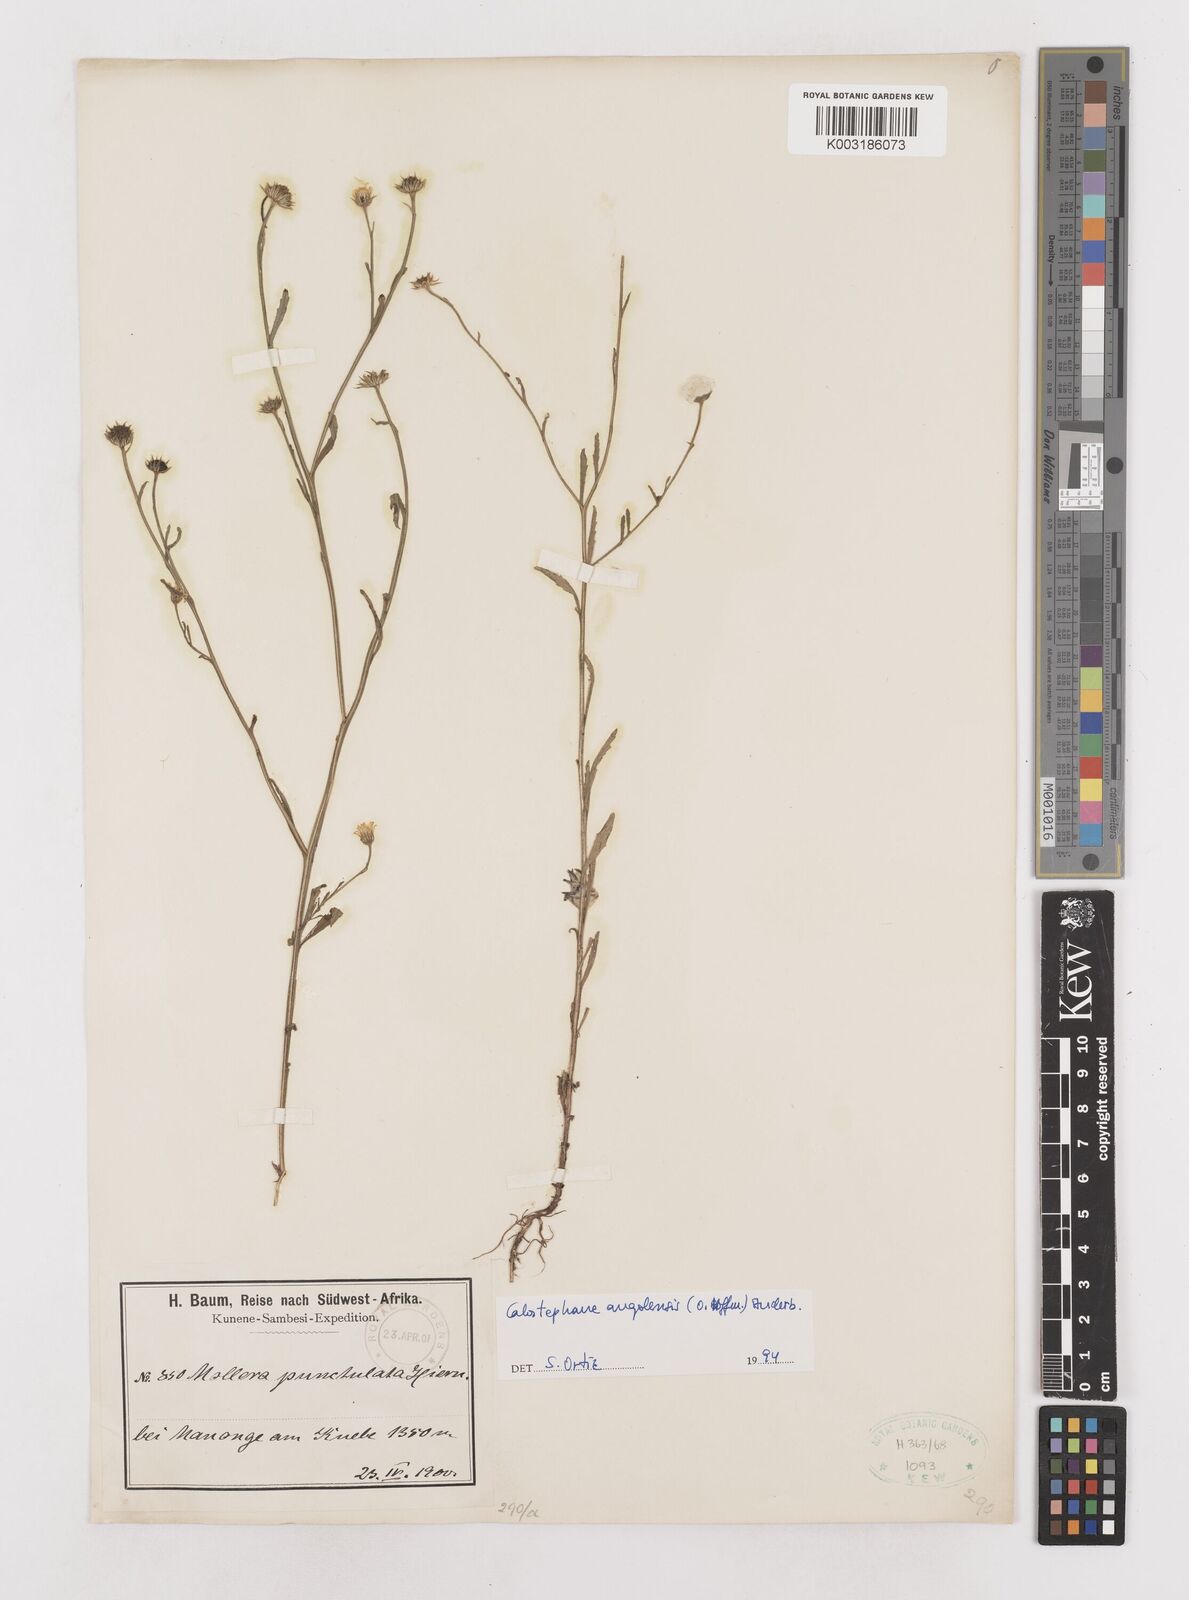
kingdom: Plantae
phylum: Tracheophyta
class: Magnoliopsida
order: Asterales
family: Asteraceae
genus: Calostephane
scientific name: Calostephane angolensis
